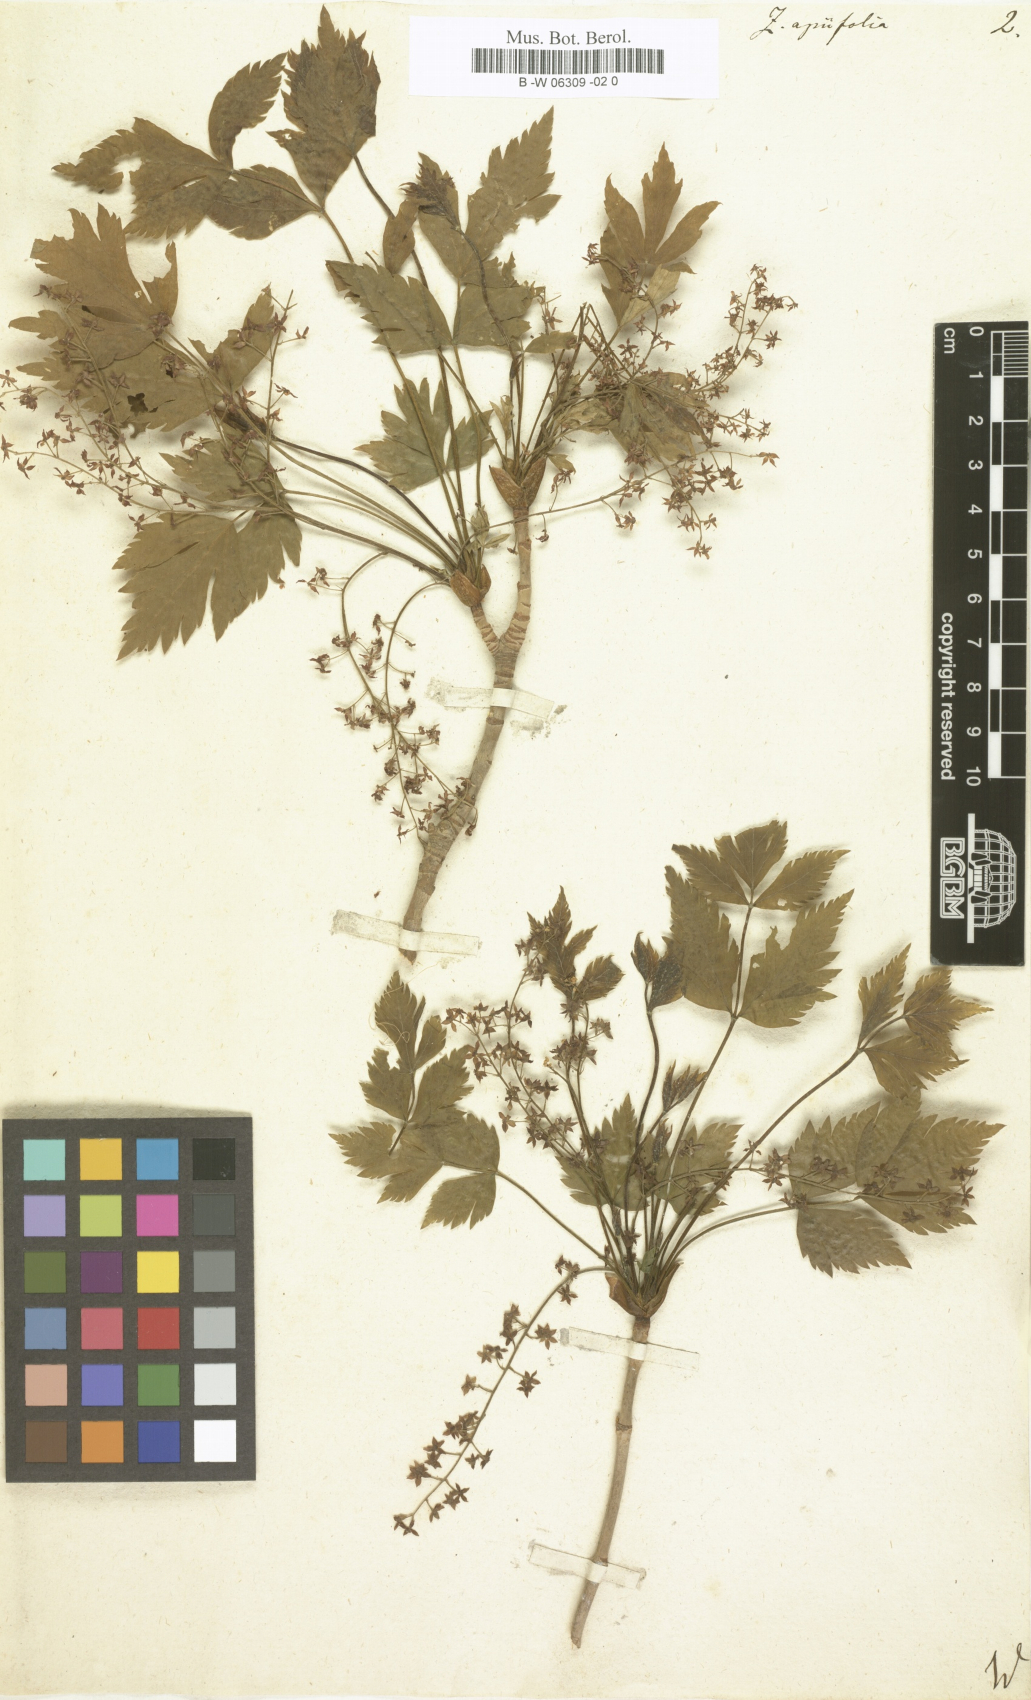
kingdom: Plantae
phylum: Tracheophyta
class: Magnoliopsida
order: Ranunculales
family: Ranunculaceae
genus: Xanthorhiza
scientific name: Xanthorhiza simplicissima
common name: Yellowroot
